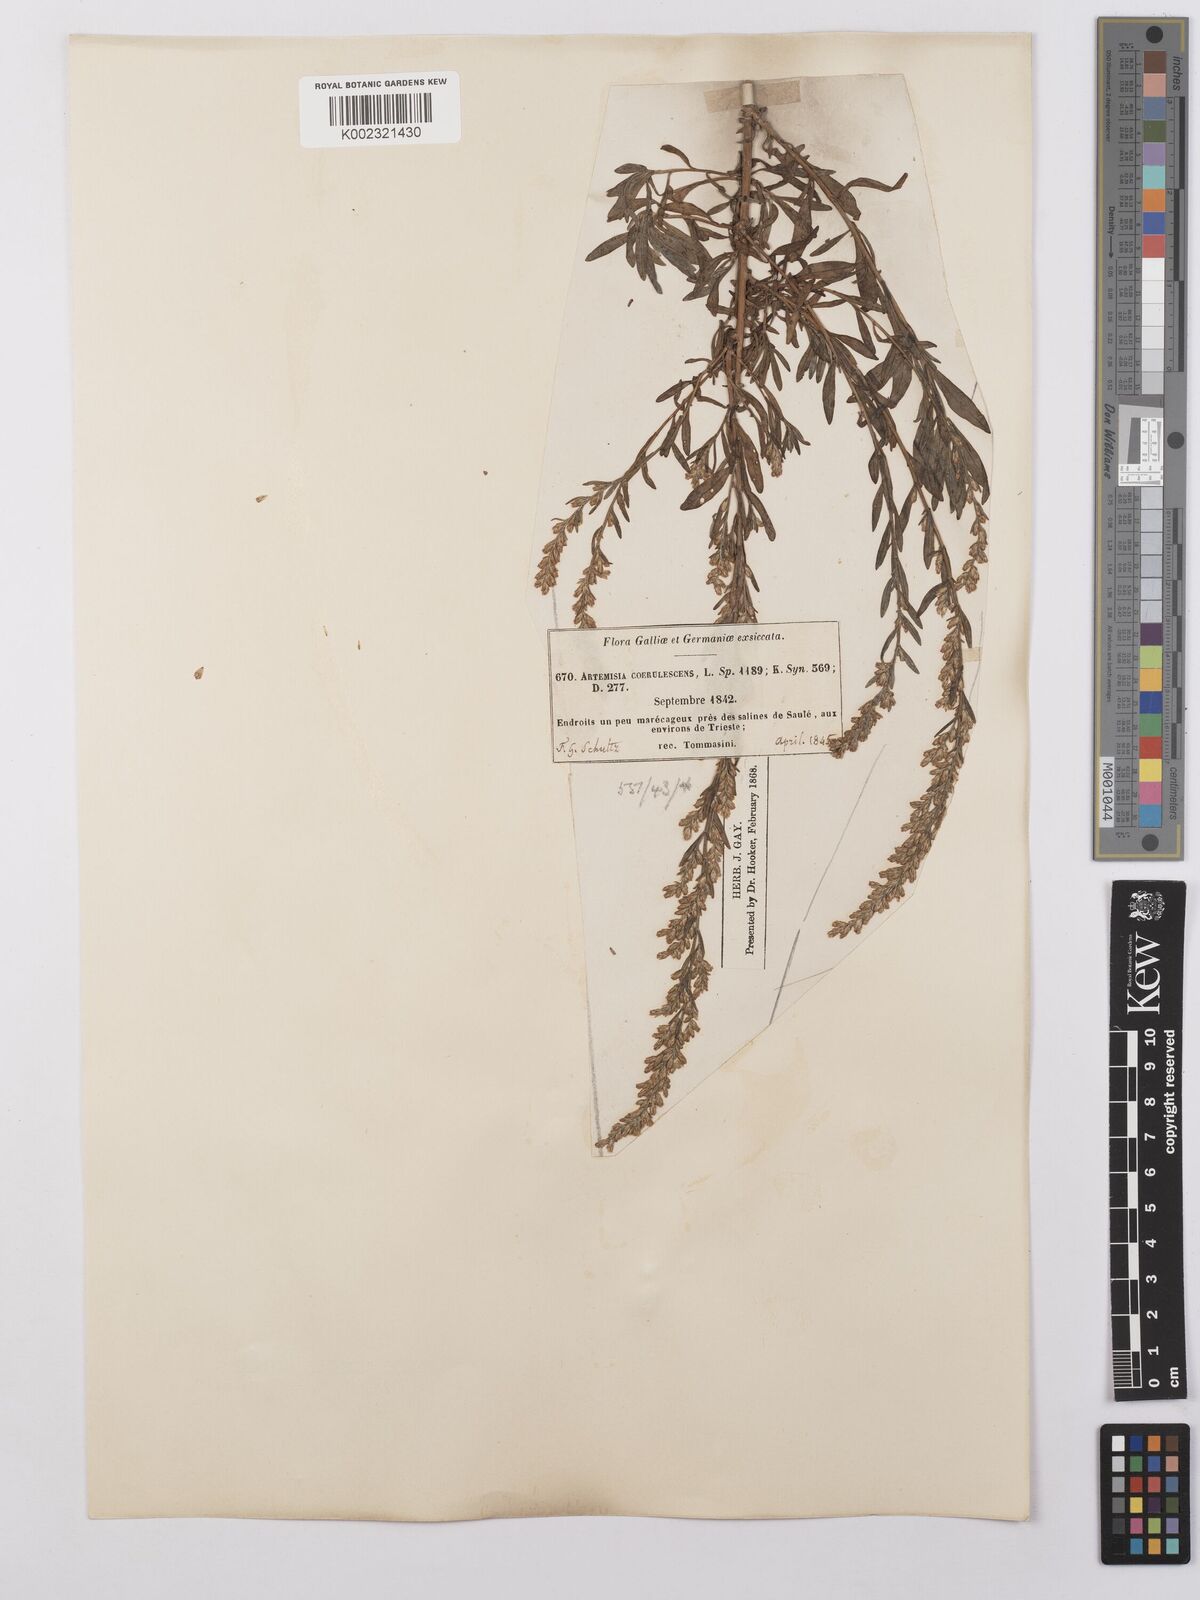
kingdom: Plantae
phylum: Tracheophyta
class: Magnoliopsida
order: Asterales
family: Asteraceae
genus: Artemisia
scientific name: Artemisia caerulescens
